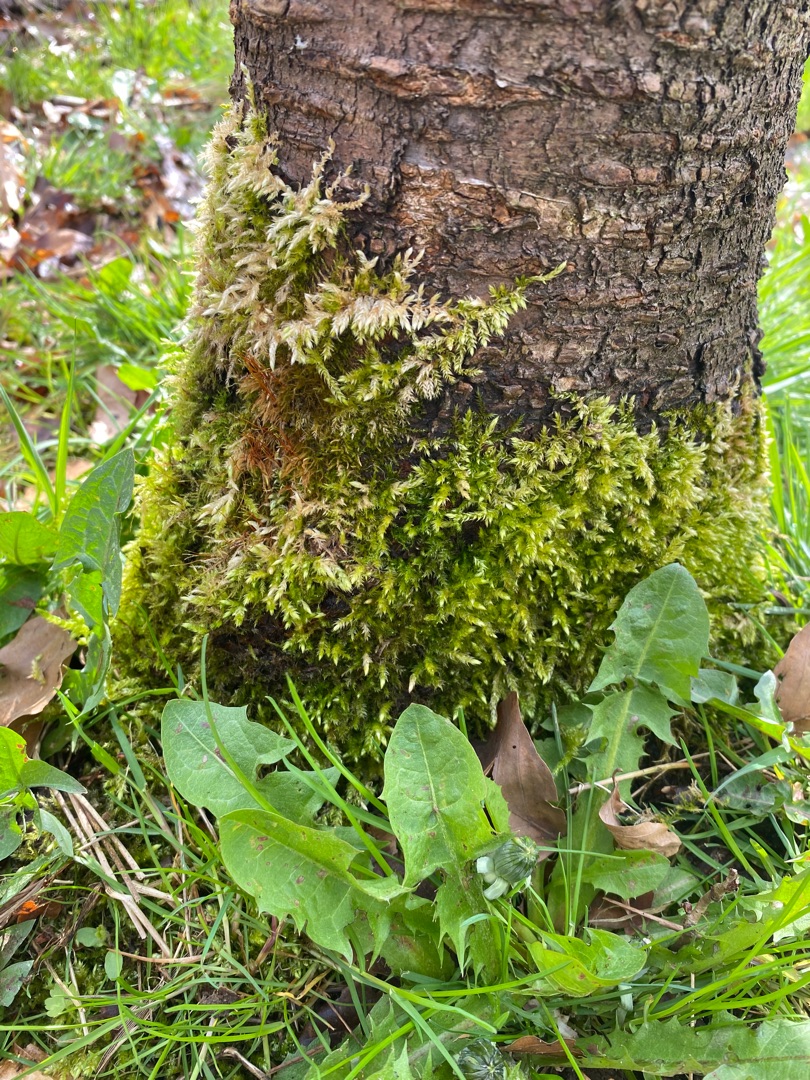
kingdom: Plantae
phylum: Bryophyta
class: Bryopsida
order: Hypnales
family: Brachytheciaceae
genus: Brachythecium
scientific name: Brachythecium rutabulum
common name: Almindelig kortkapsel
